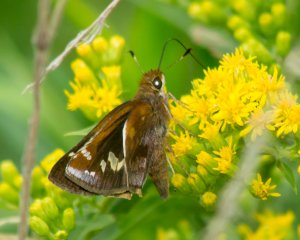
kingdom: Animalia
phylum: Arthropoda
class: Insecta
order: Lepidoptera
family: Hesperiidae
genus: Lon
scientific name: Lon zabulon
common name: Zabulon Skipper
